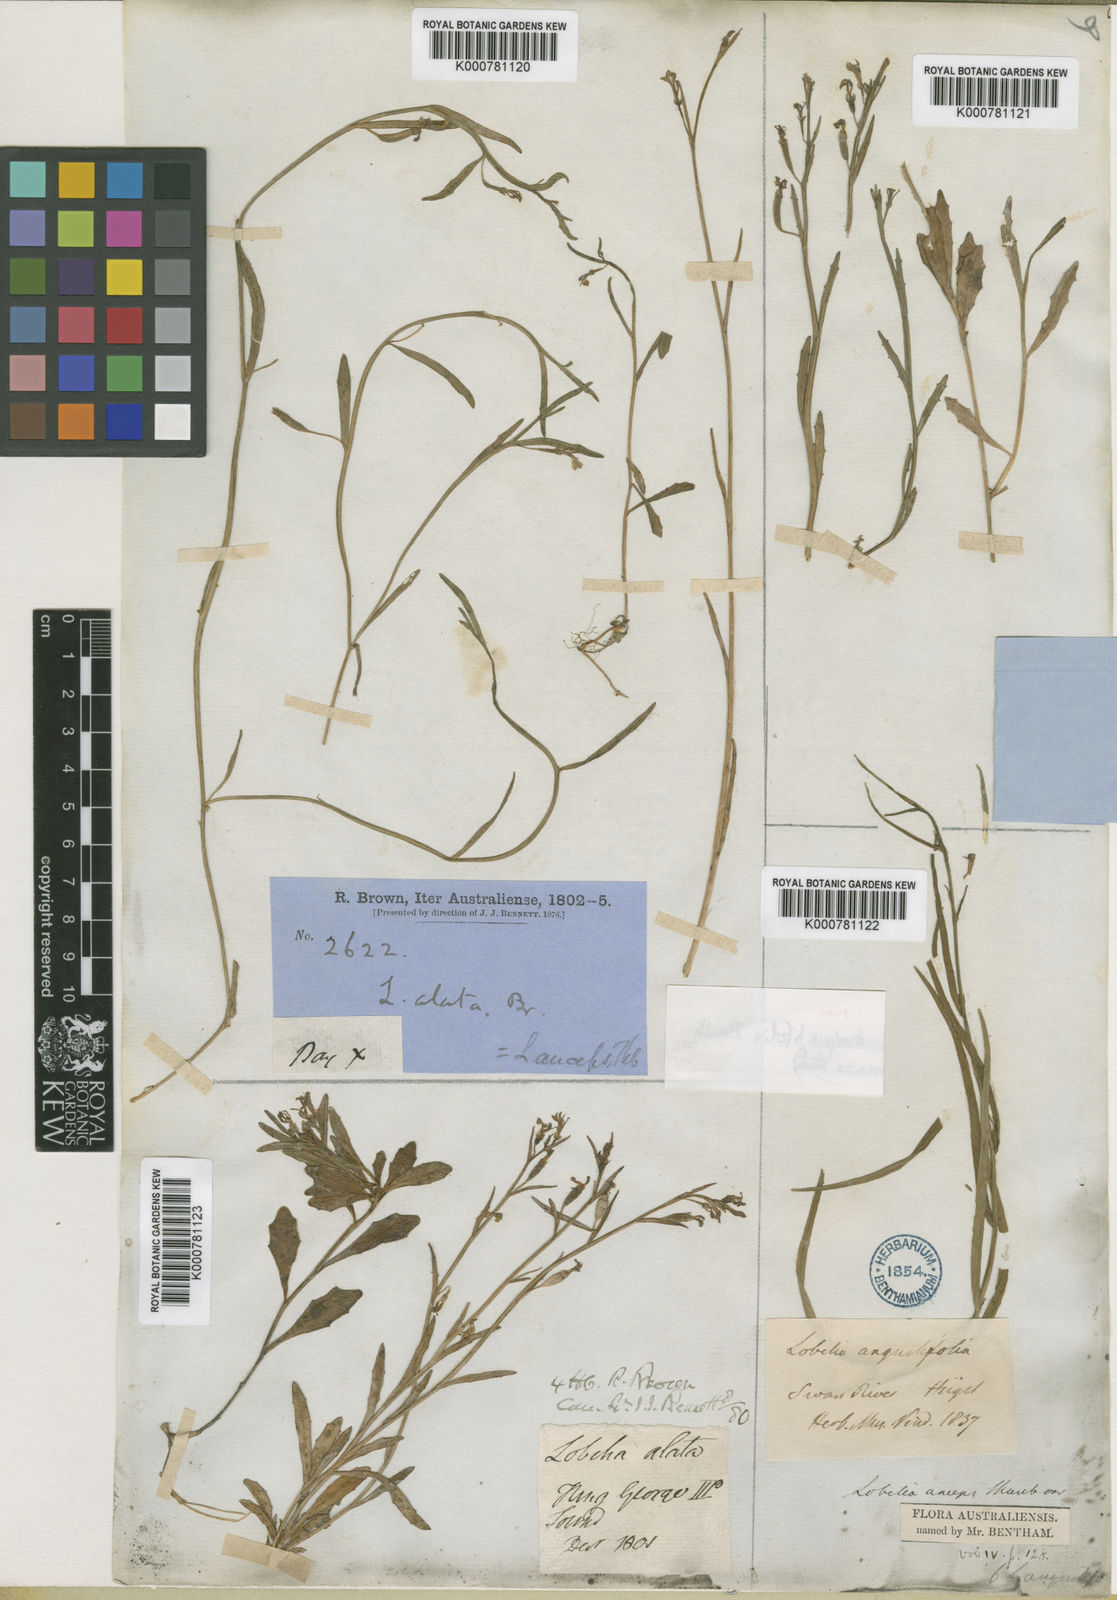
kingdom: Plantae
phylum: Tracheophyta
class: Magnoliopsida
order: Asterales
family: Campanulaceae
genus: Lobelia
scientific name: Lobelia
